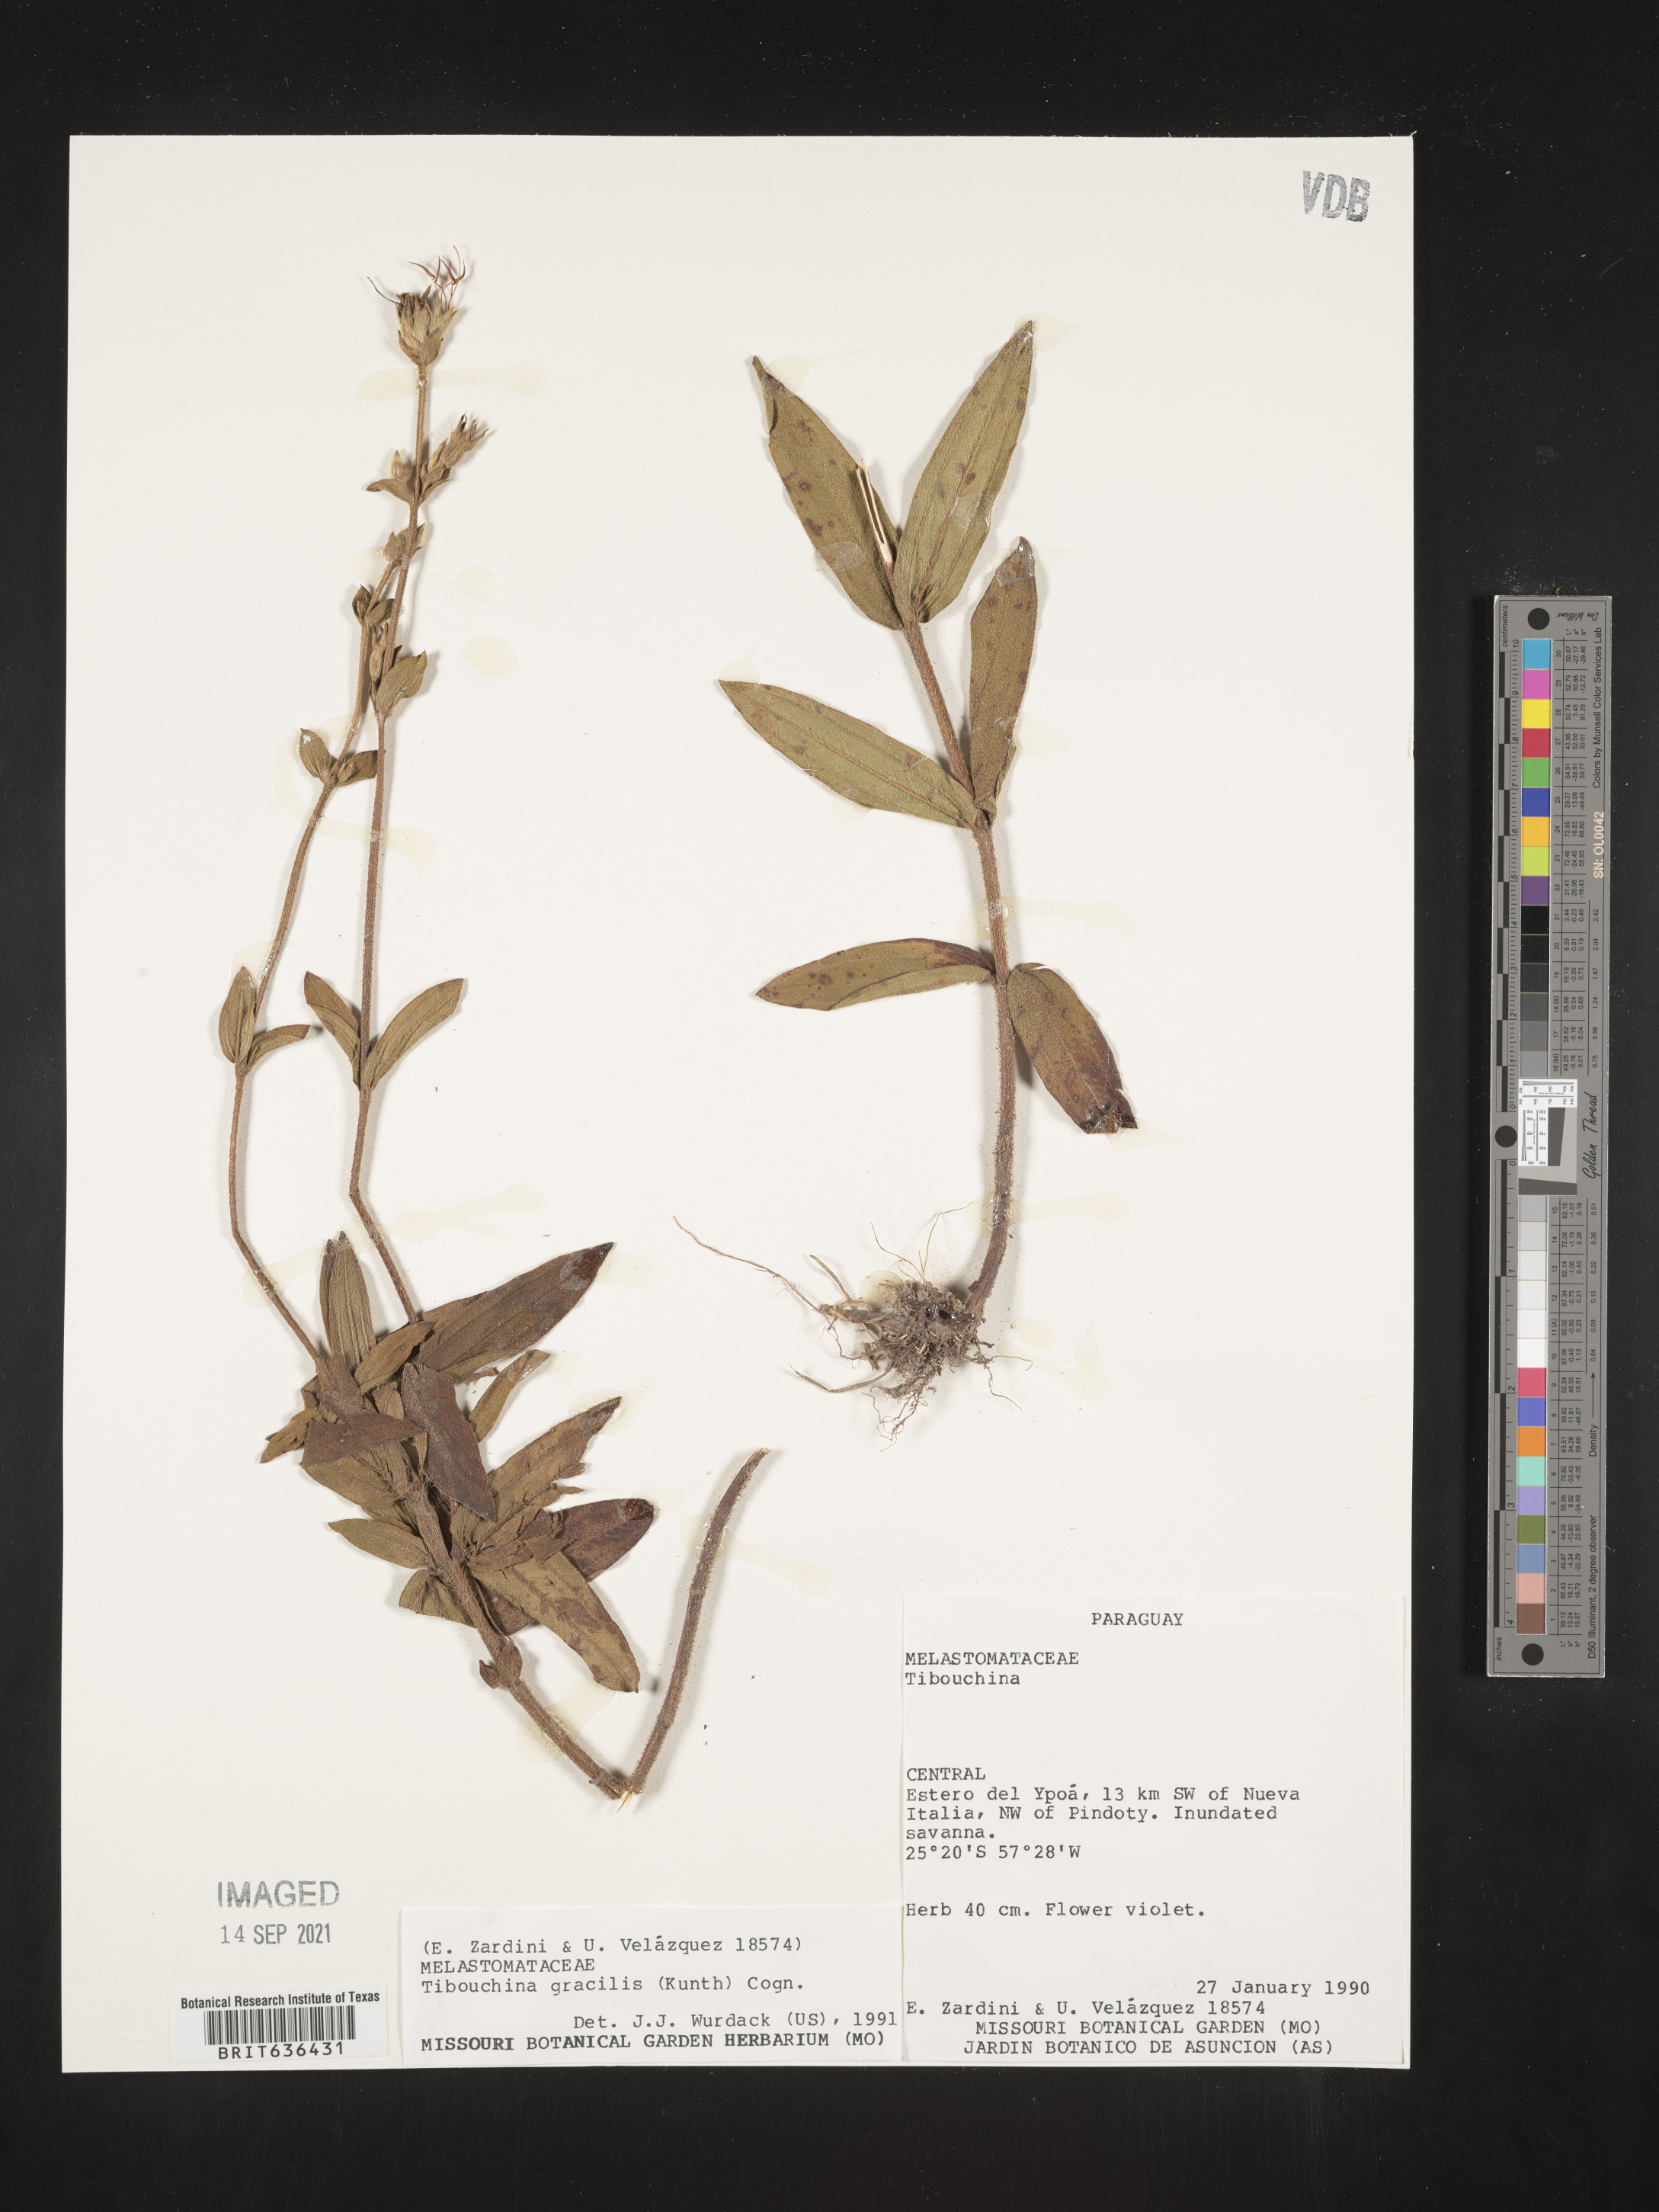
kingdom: Plantae
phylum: Tracheophyta
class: Magnoliopsida
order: Myrtales
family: Melastomataceae
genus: Tibouchina
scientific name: Tibouchina
